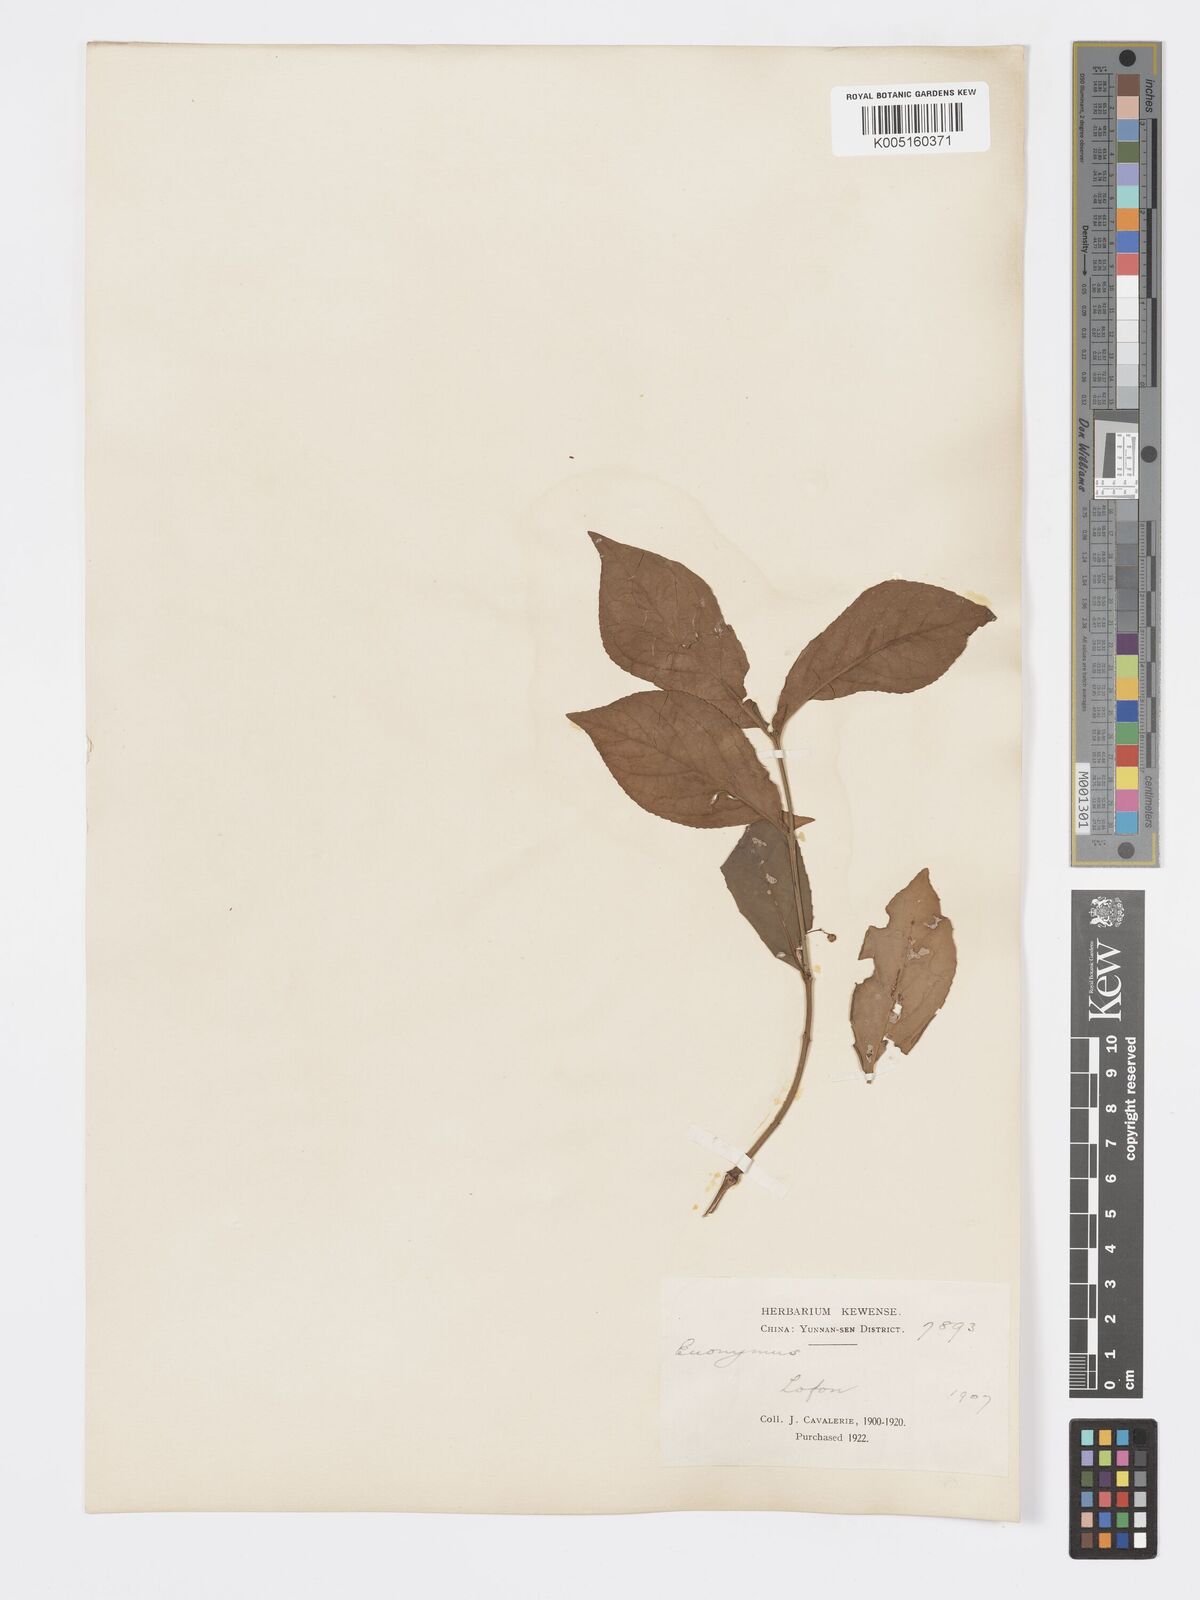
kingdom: Plantae
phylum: Tracheophyta
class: Magnoliopsida
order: Celastrales
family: Celastraceae
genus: Euonymus
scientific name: Euonymus
